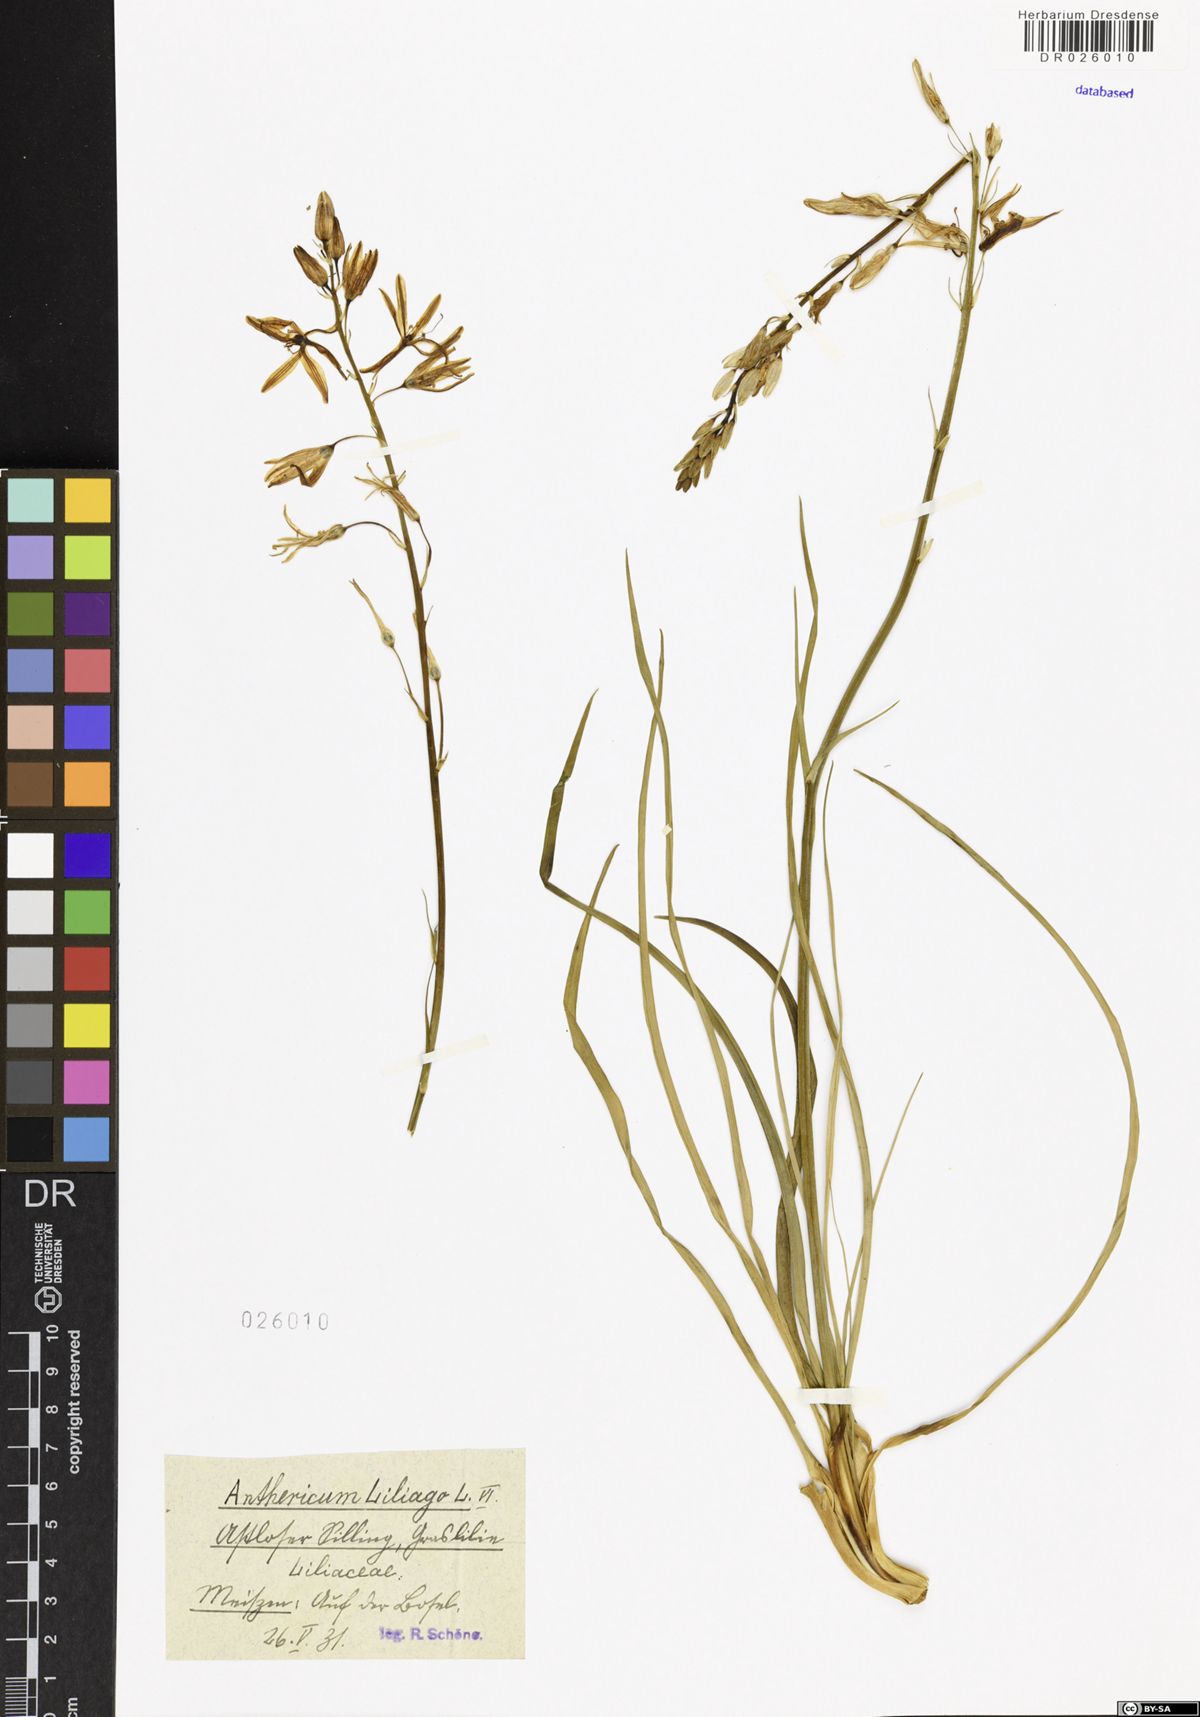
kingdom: Plantae
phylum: Tracheophyta
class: Liliopsida
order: Asparagales
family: Asparagaceae
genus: Anthericum
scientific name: Anthericum liliago
